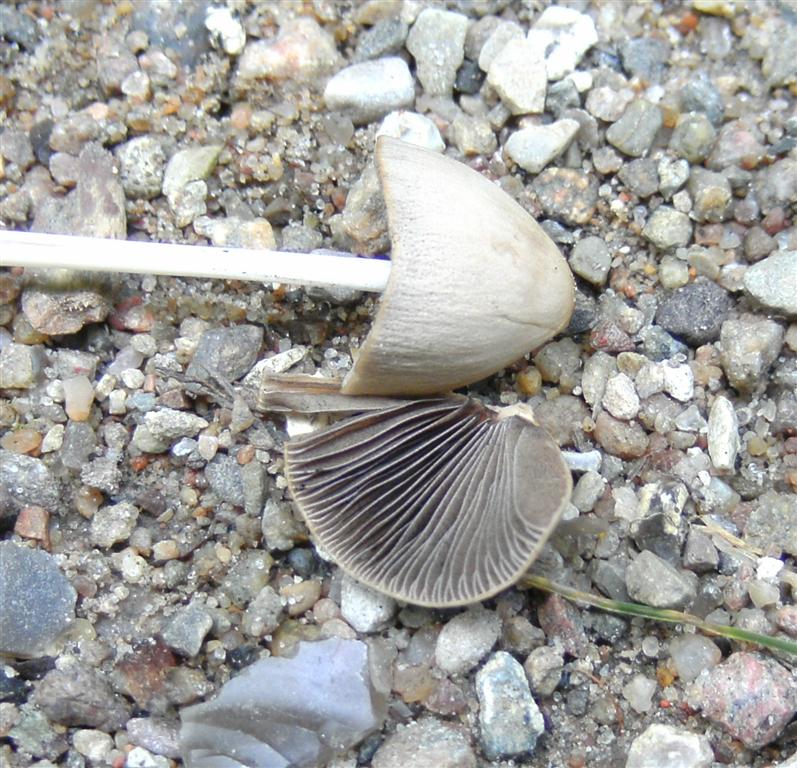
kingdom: Fungi
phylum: Basidiomycota
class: Agaricomycetes
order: Agaricales
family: Psathyrellaceae
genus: Parasola
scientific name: Parasola conopilea
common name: kegle-hjulhat
